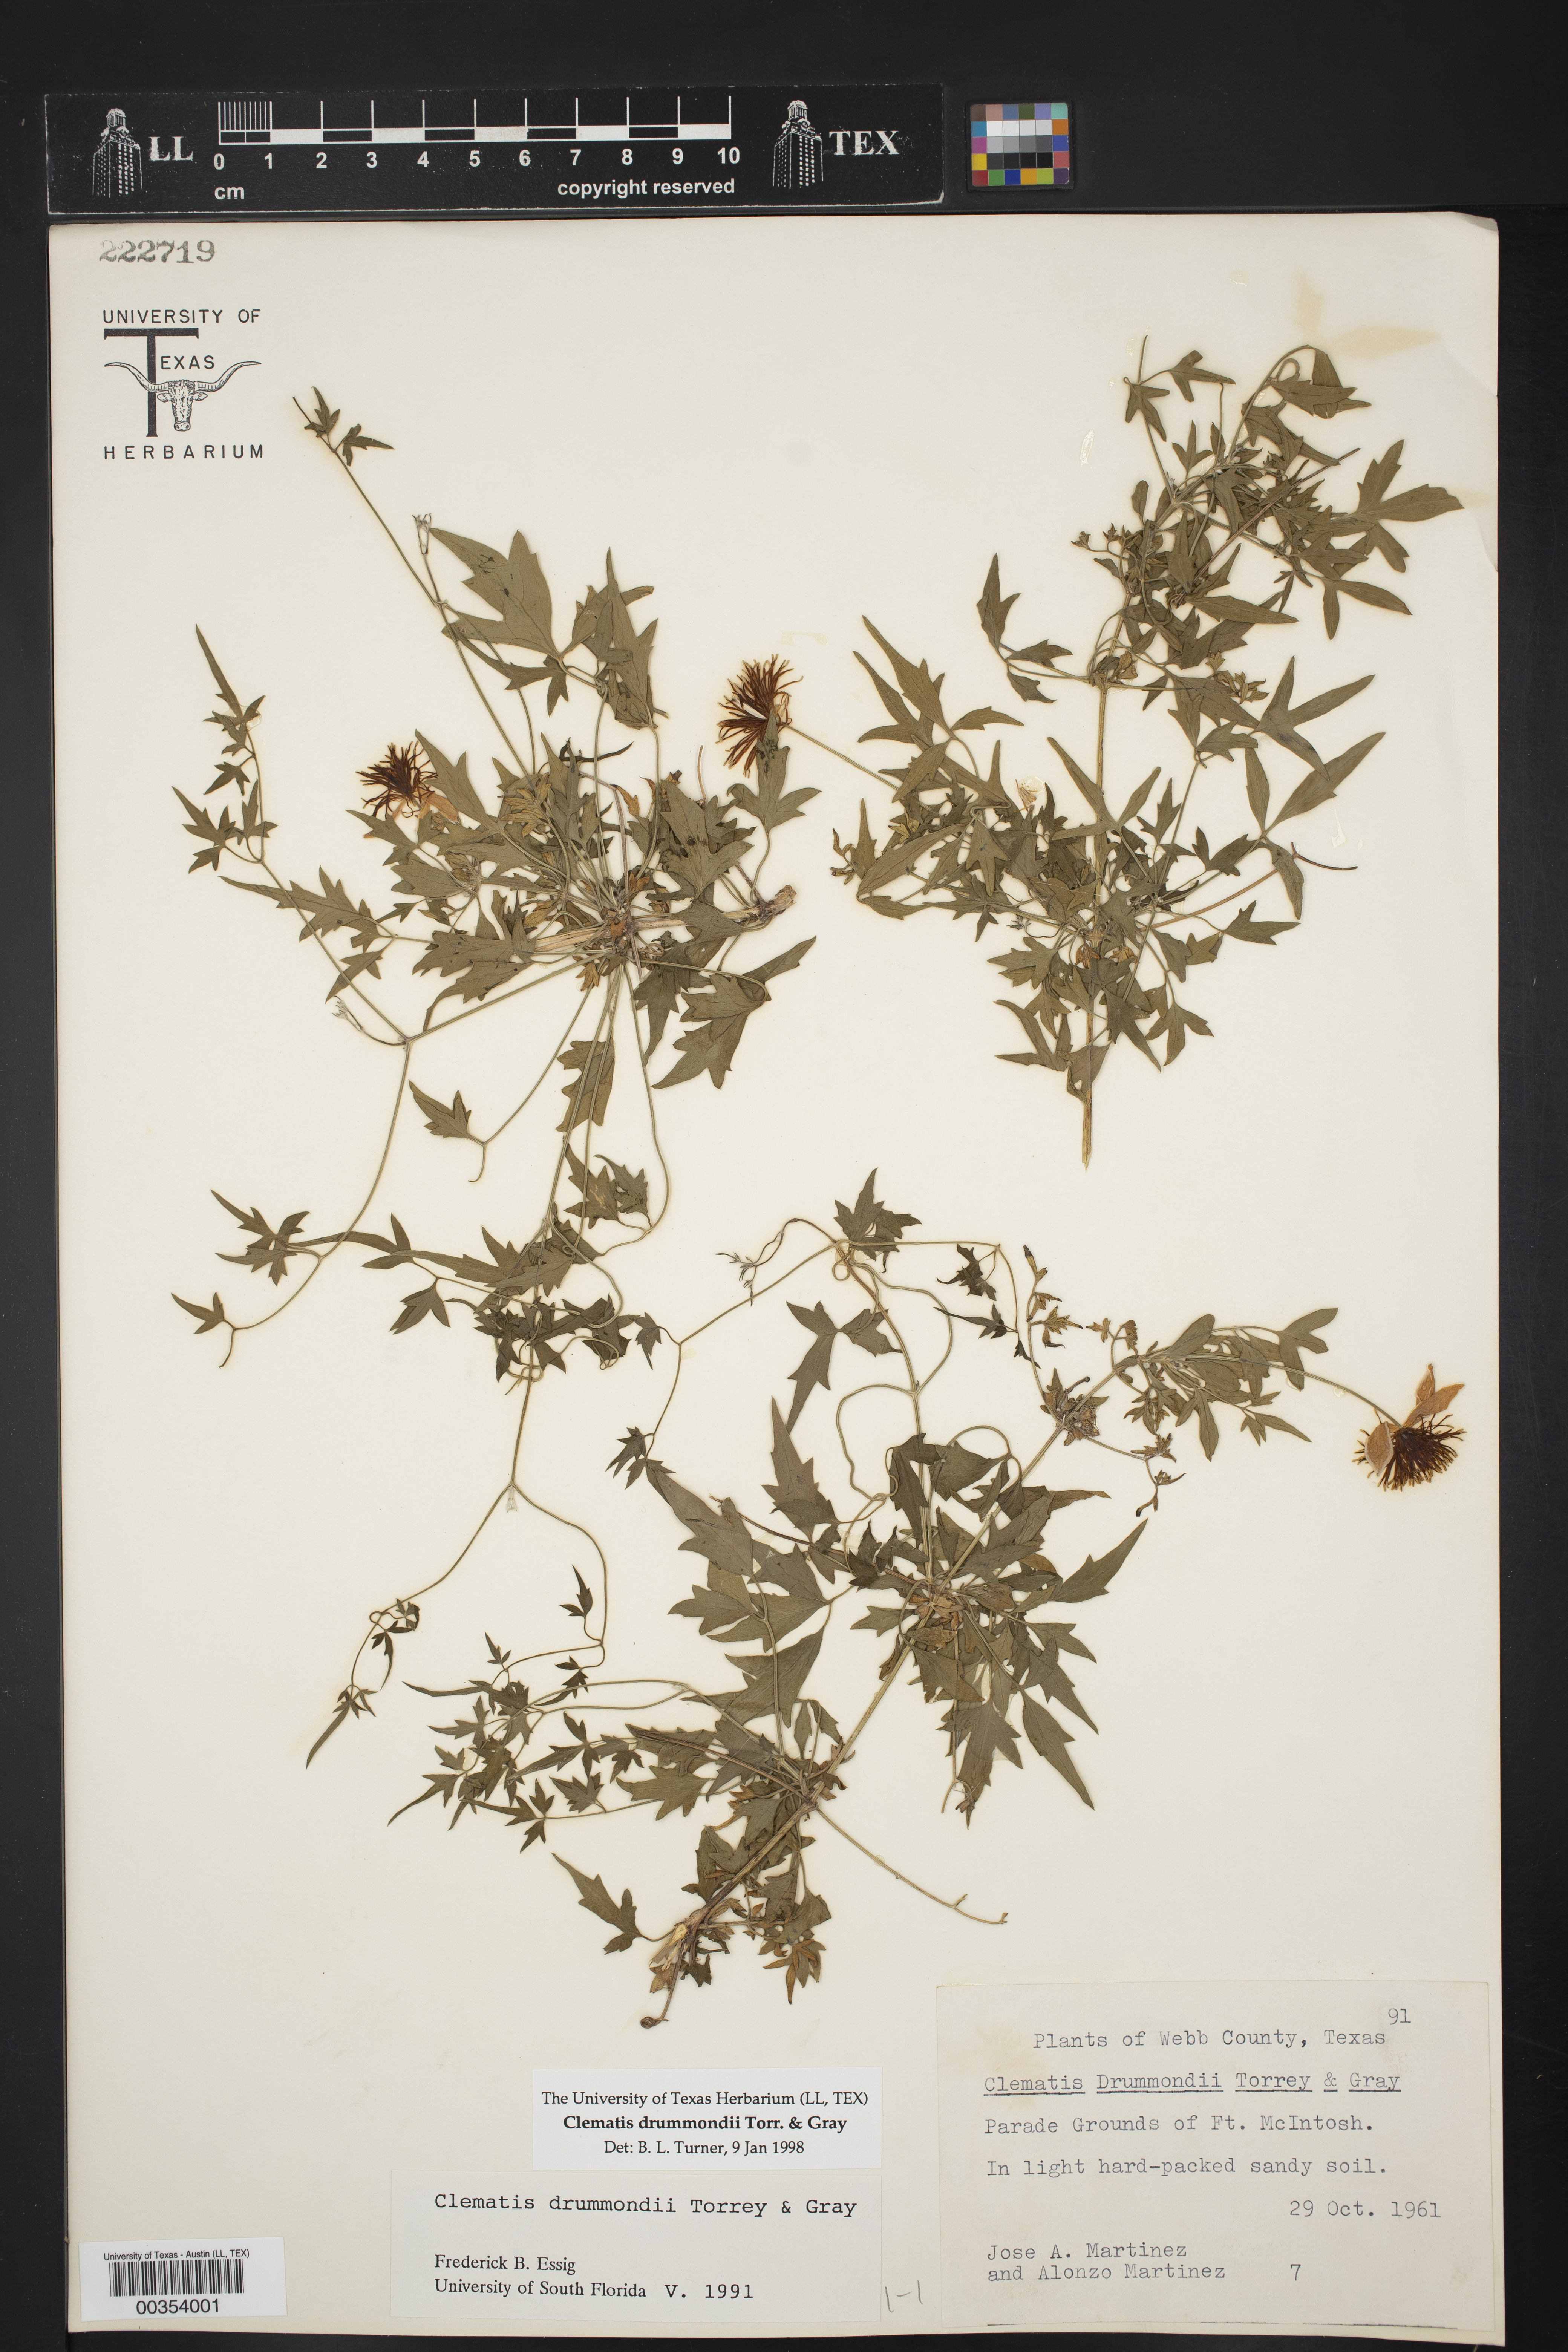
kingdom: Plantae
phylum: Tracheophyta
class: Magnoliopsida
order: Ranunculales
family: Ranunculaceae
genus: Clematis
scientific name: Clematis drummondii
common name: Texas virgin's bower
